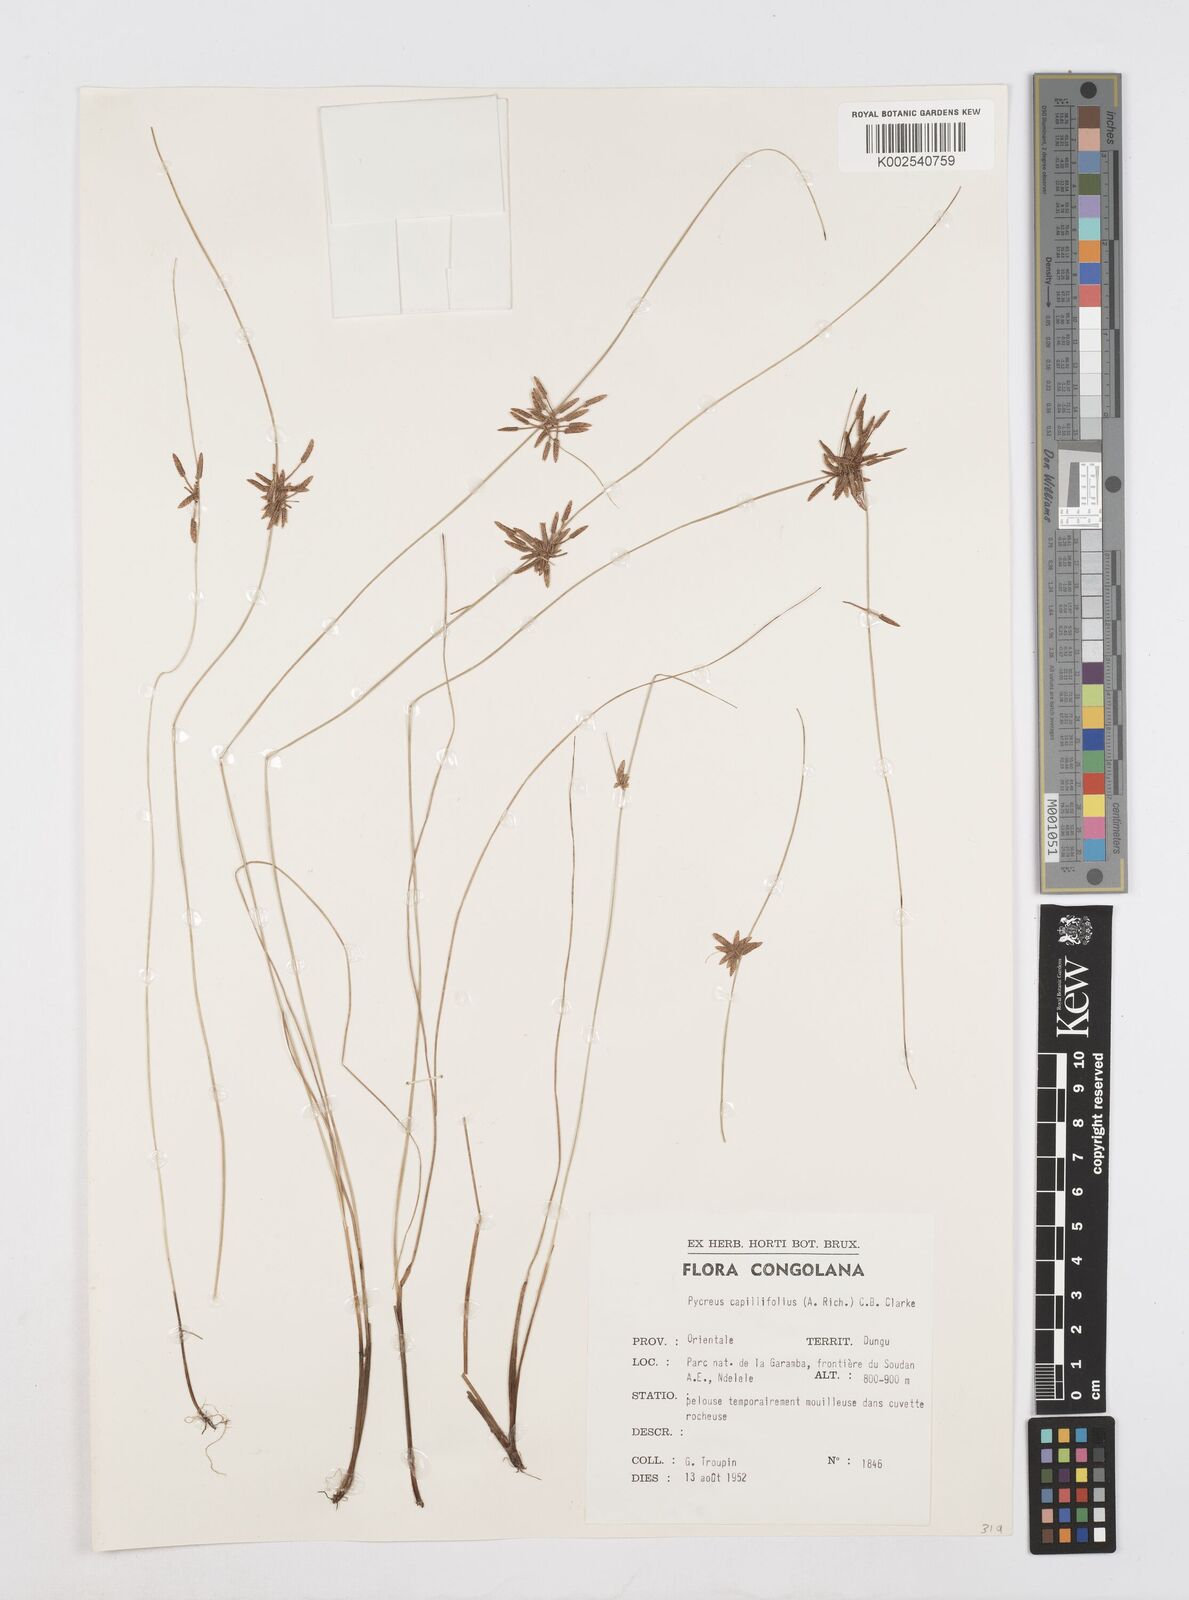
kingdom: Plantae
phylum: Tracheophyta
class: Liliopsida
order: Poales
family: Cyperaceae
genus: Cyperus
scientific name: Cyperus capillifolius
